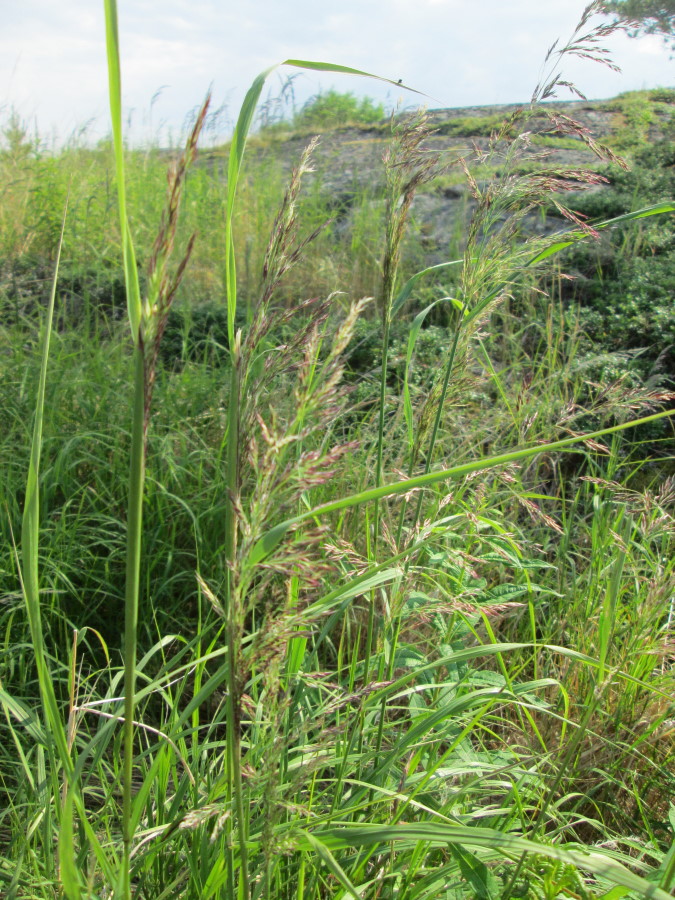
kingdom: Plantae
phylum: Tracheophyta
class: Liliopsida
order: Poales
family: Poaceae
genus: Calamagrostis
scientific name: Calamagrostis
